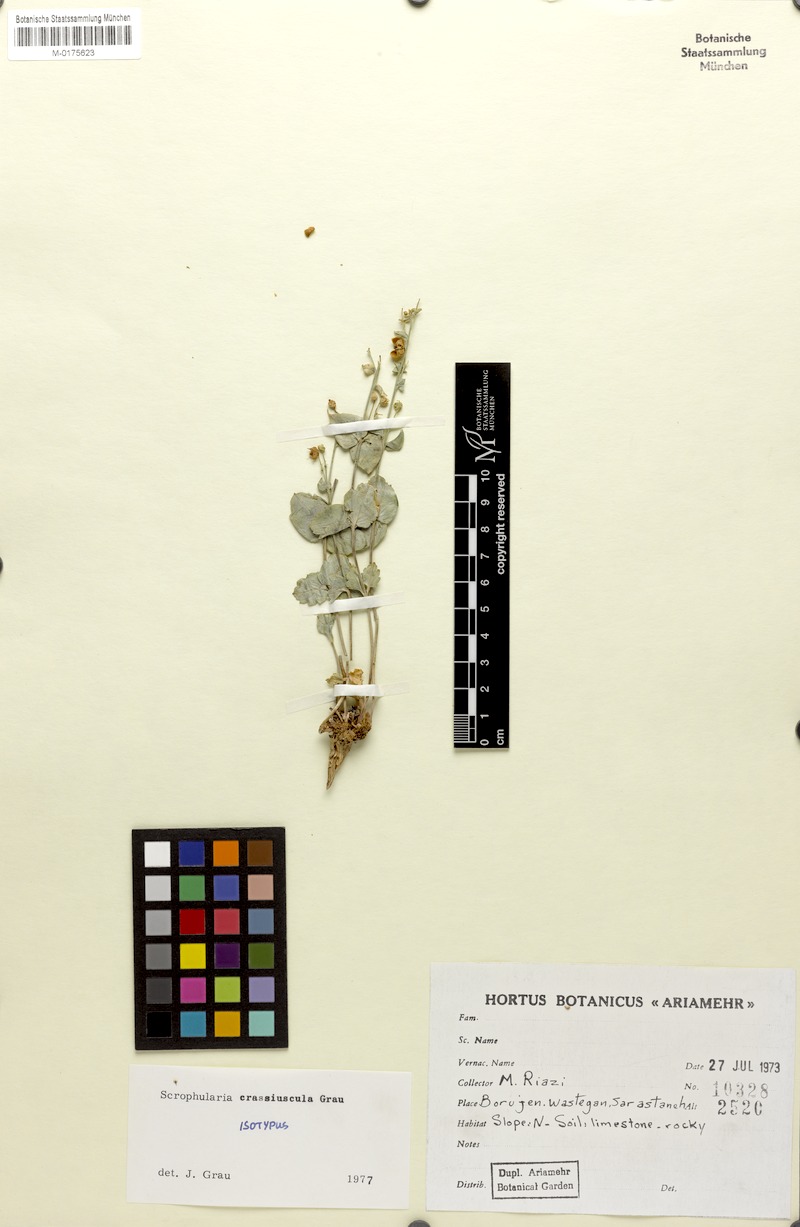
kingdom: Plantae
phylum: Tracheophyta
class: Magnoliopsida
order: Lamiales
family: Scrophulariaceae
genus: Scrophularia
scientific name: Scrophularia crassiuscula
